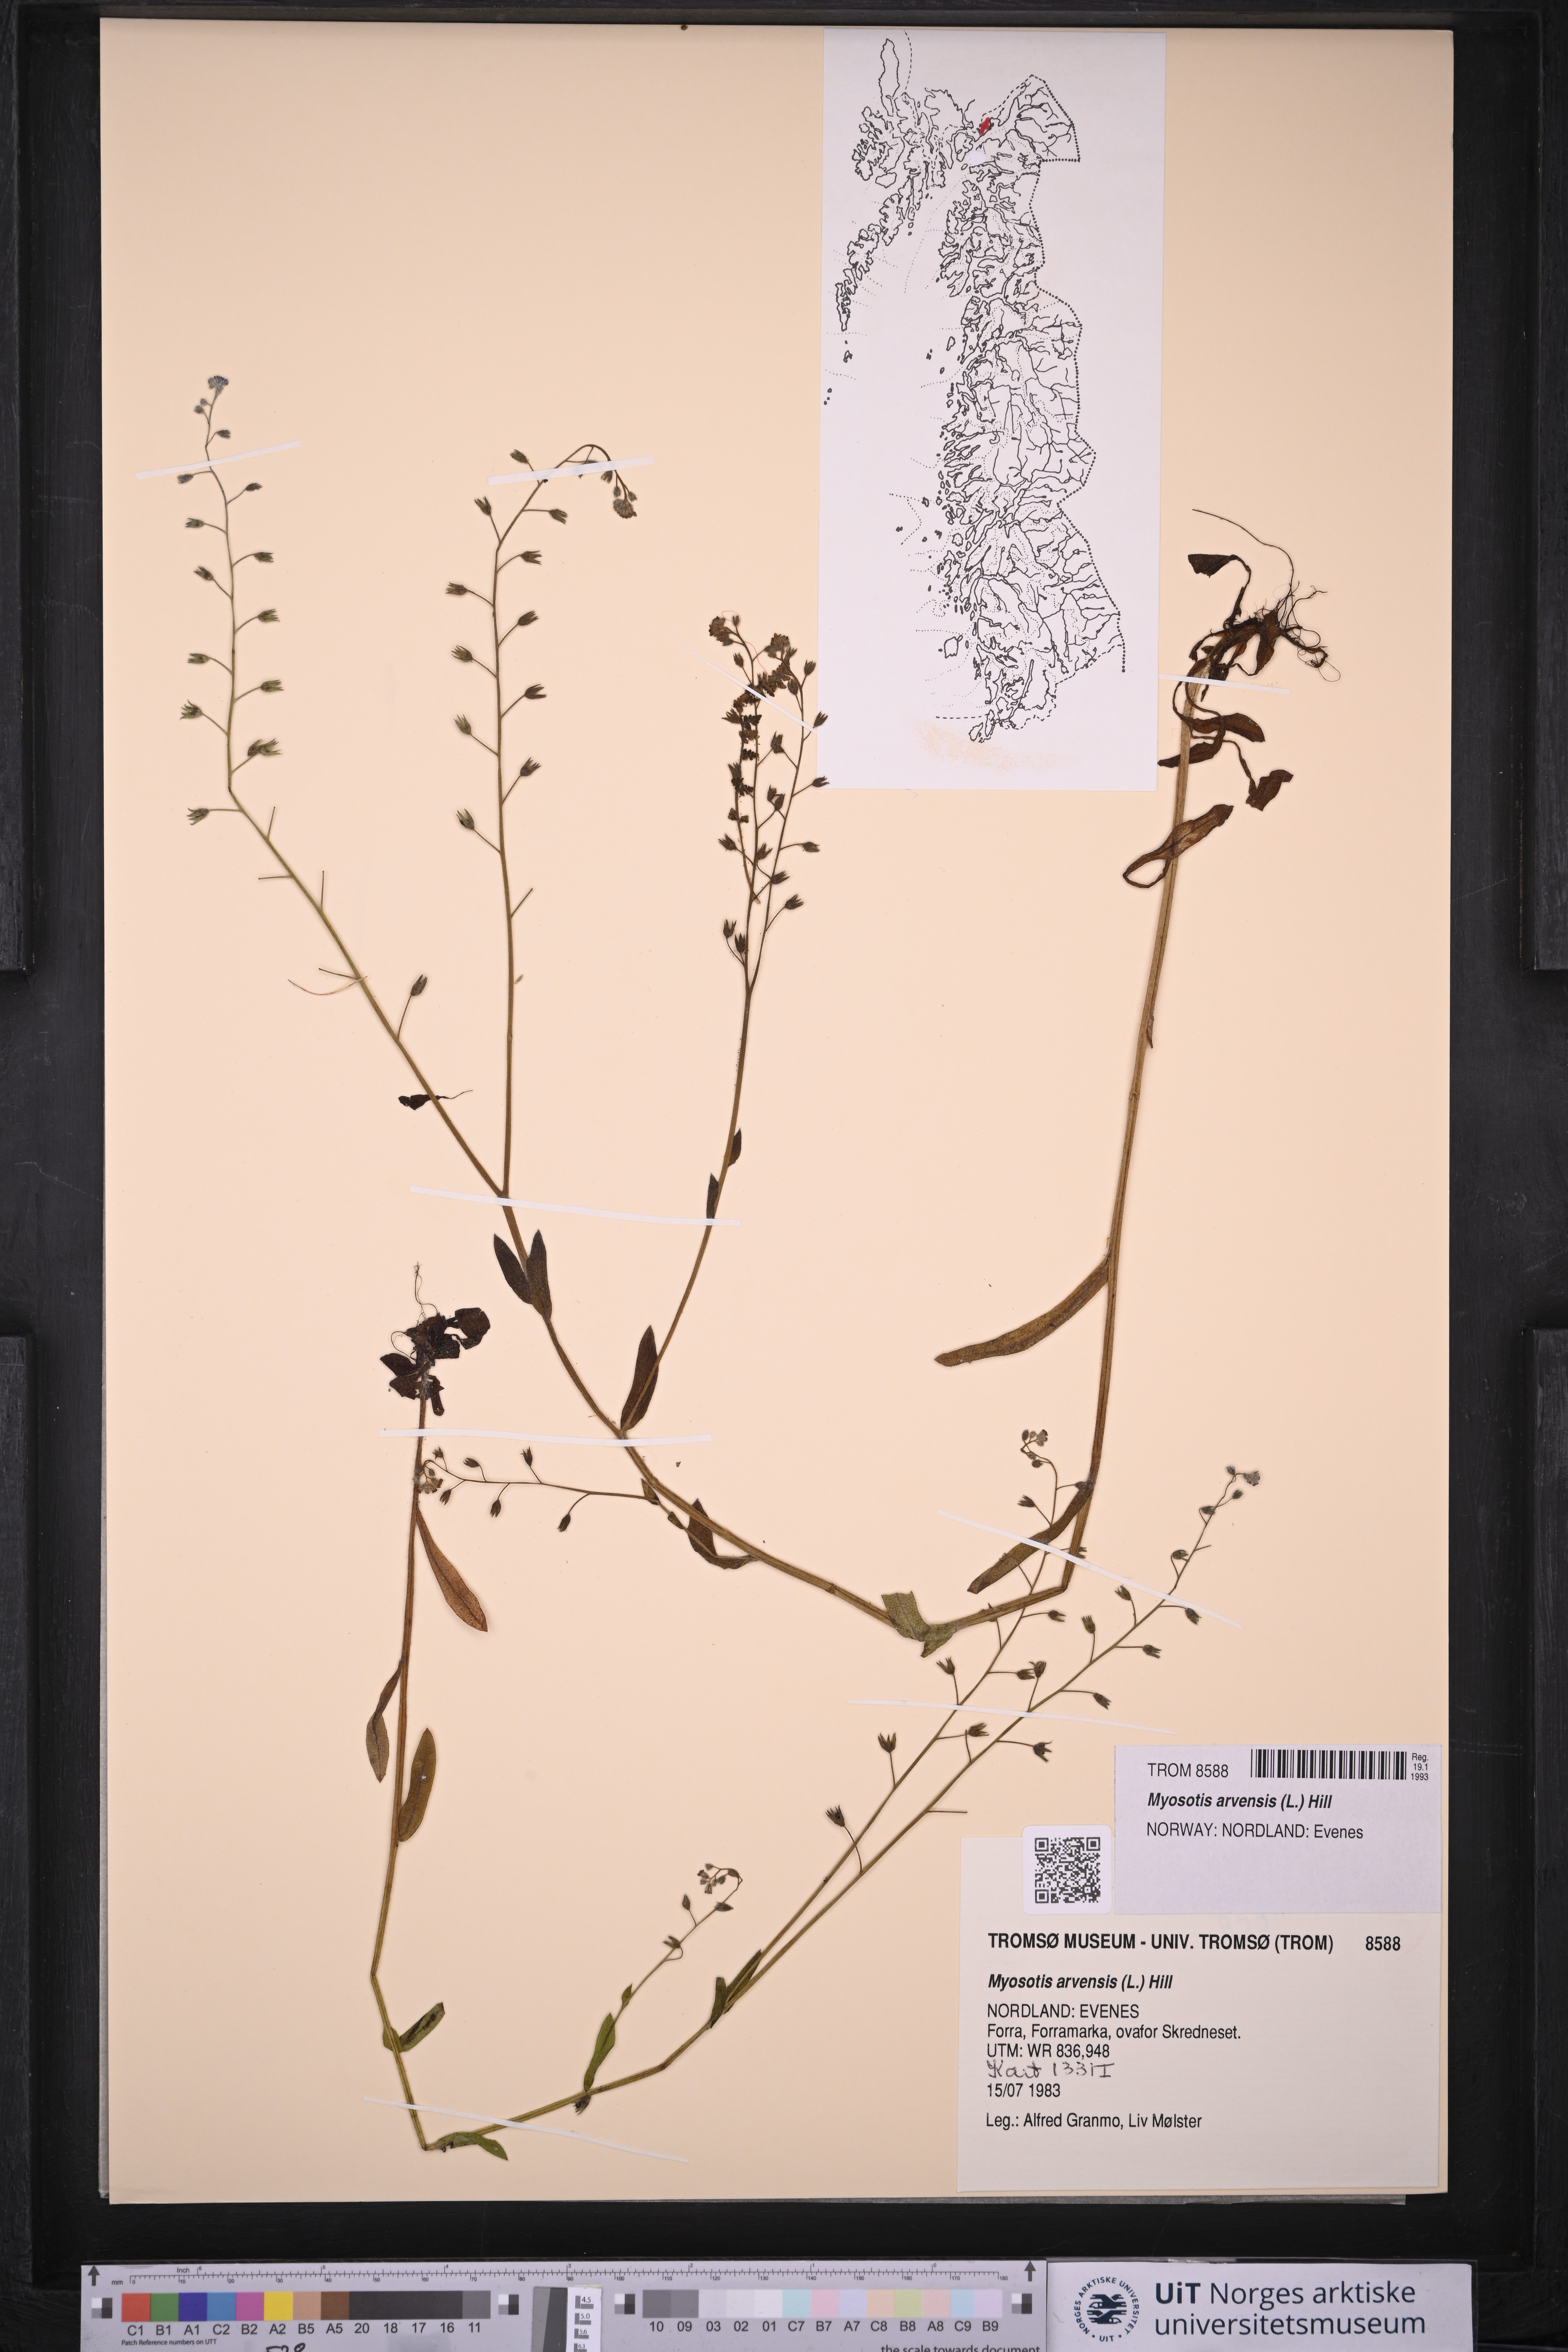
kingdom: Plantae
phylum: Tracheophyta
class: Magnoliopsida
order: Boraginales
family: Boraginaceae
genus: Myosotis
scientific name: Myosotis arvensis
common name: Field forget-me-not
